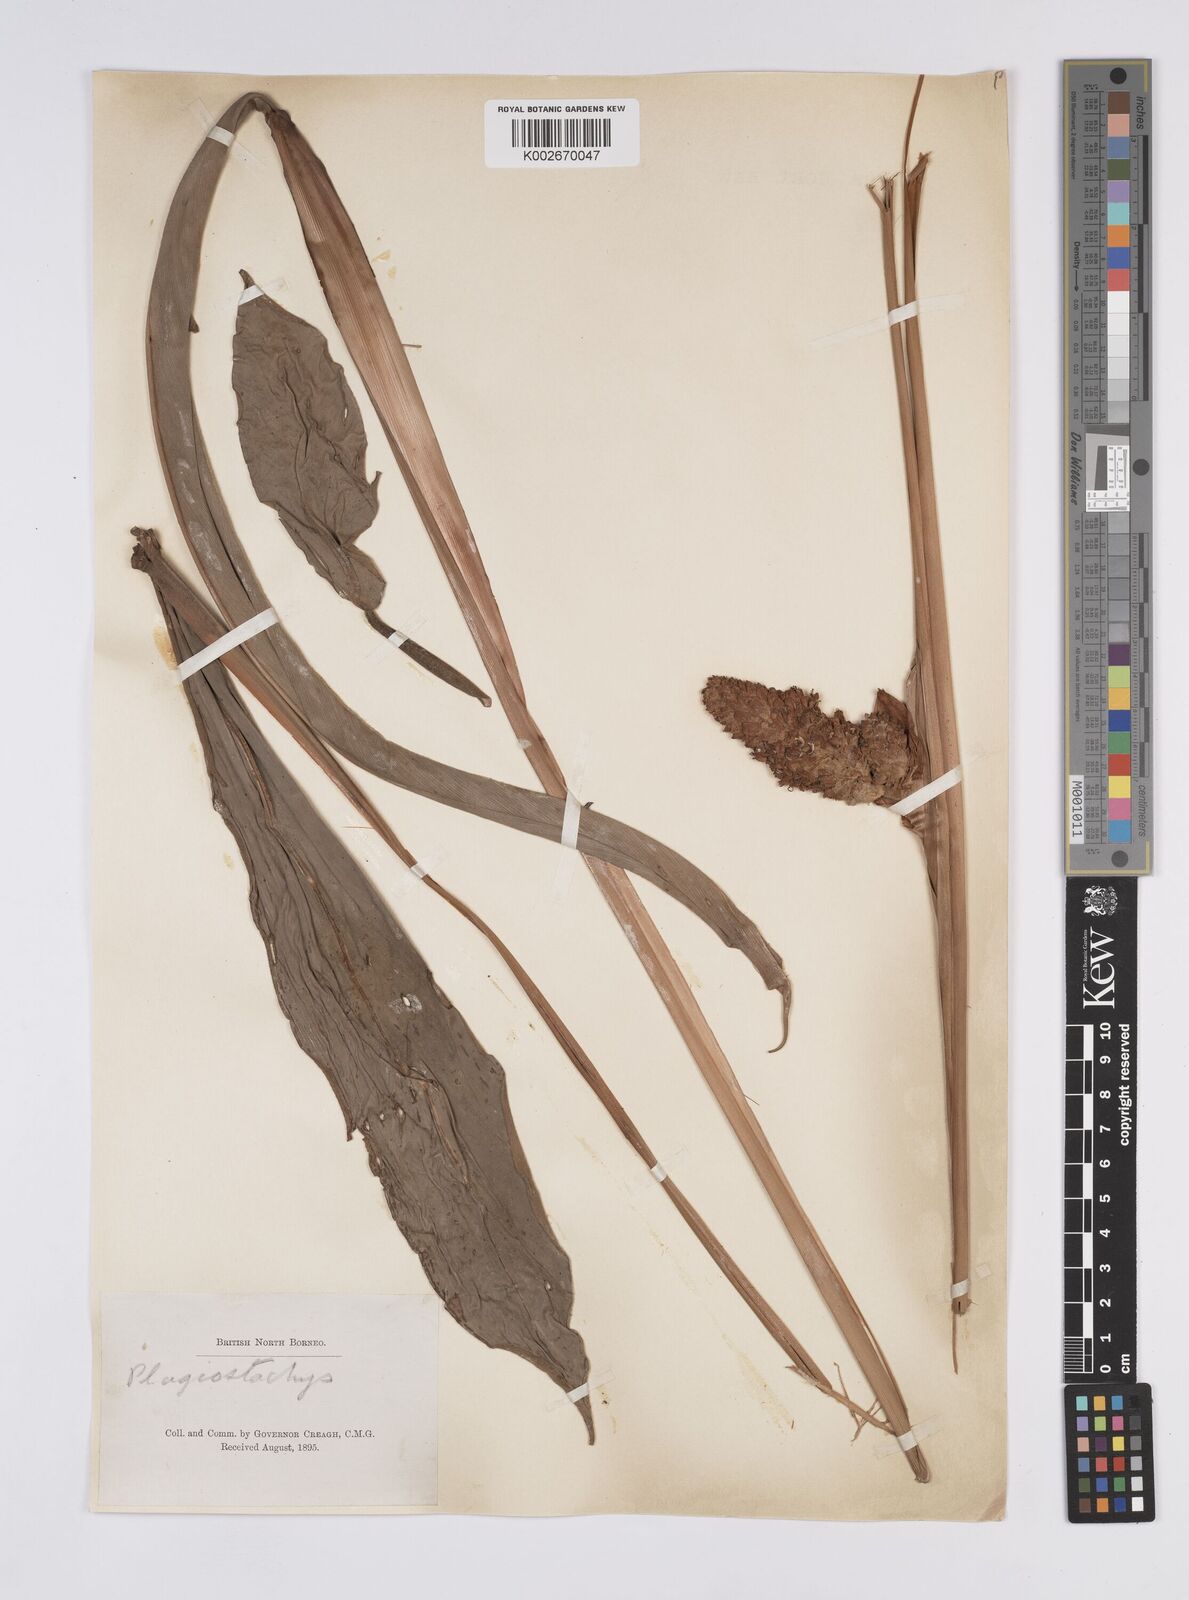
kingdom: Plantae
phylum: Tracheophyta
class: Liliopsida
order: Zingiberales
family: Zingiberaceae
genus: Plagiostachys
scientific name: Plagiostachys
